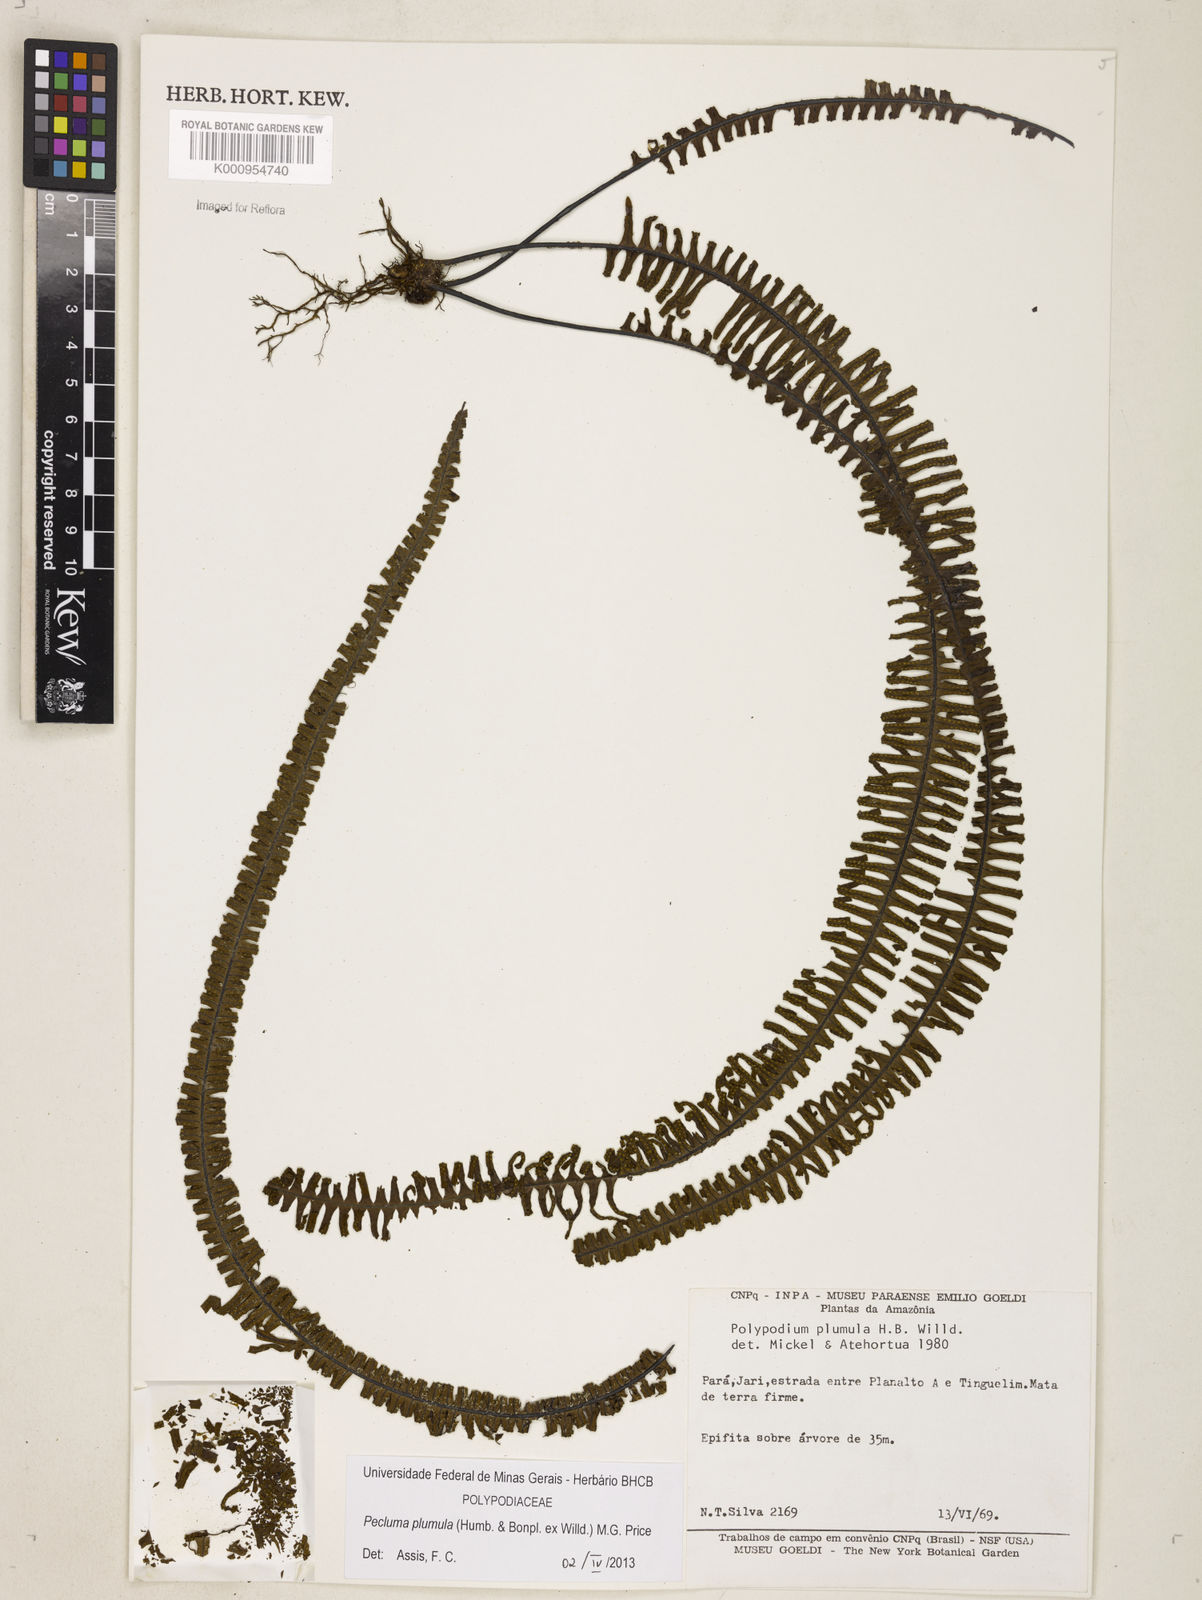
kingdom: Plantae
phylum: Tracheophyta
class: Polypodiopsida
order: Polypodiales
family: Polypodiaceae
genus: Pecluma
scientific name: Pecluma plumula
